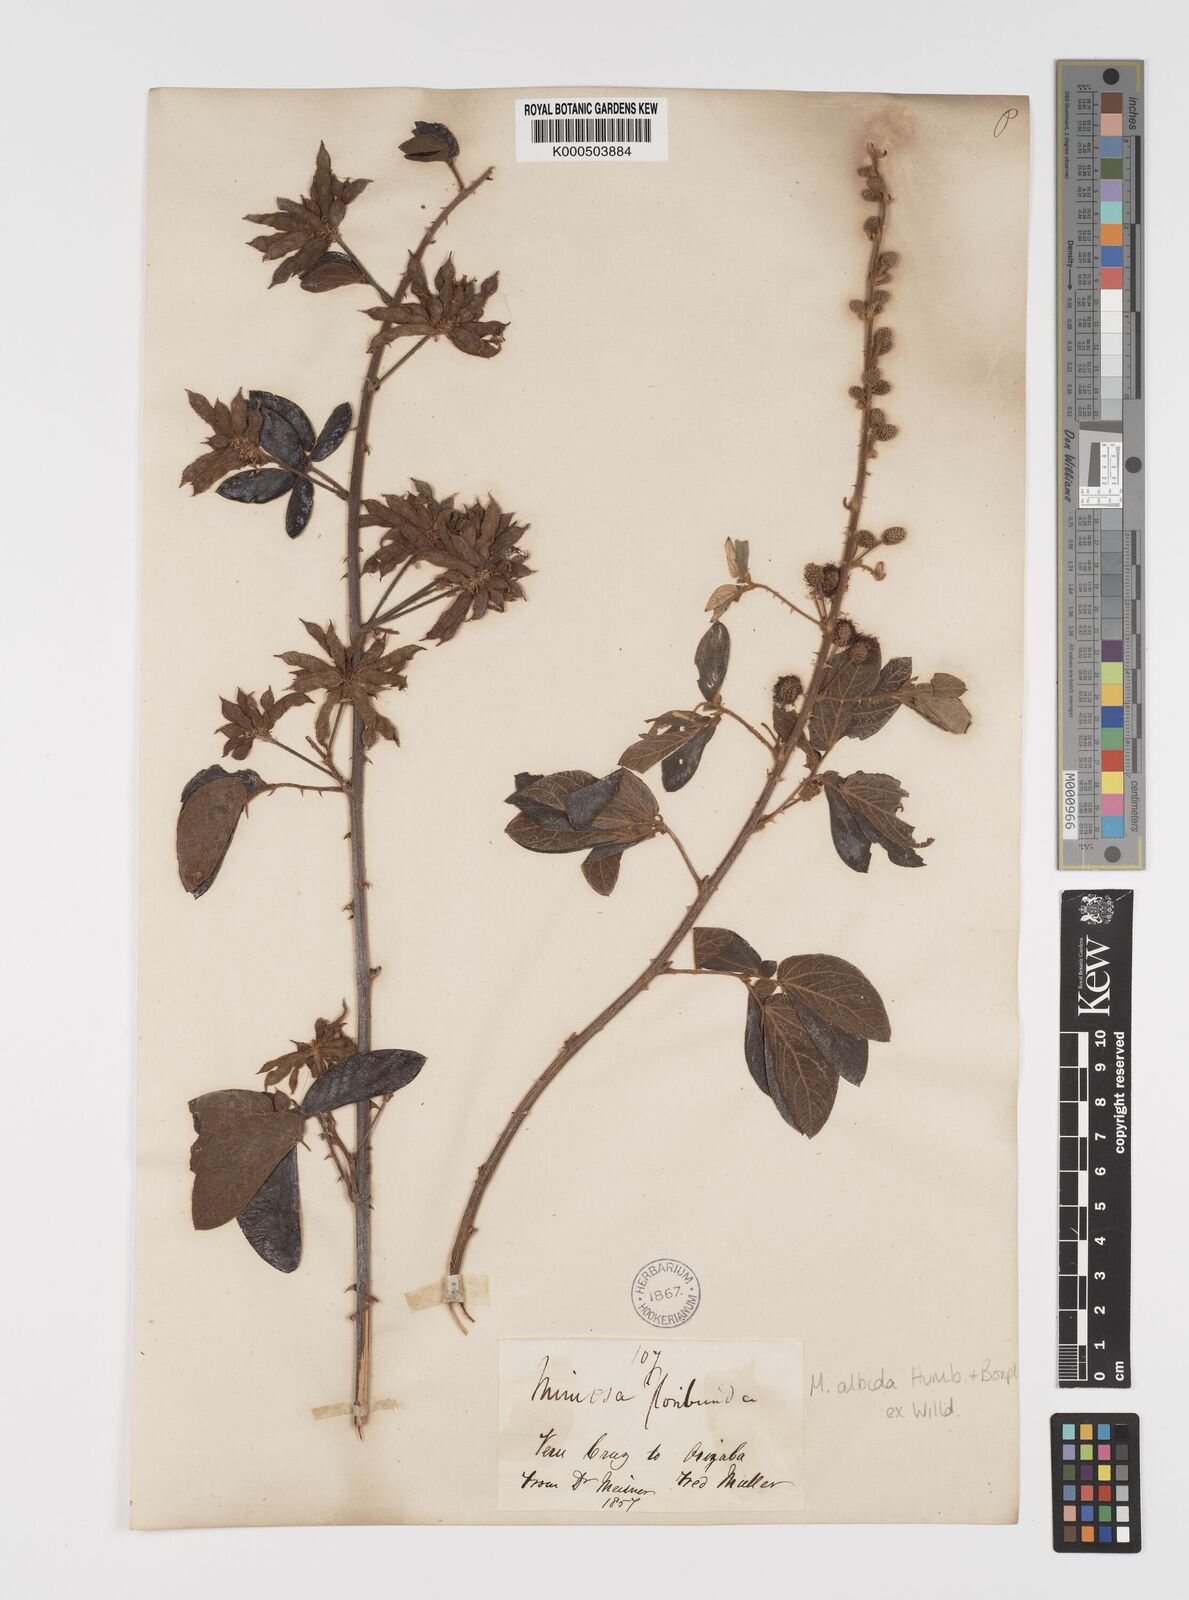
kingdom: Plantae
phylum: Tracheophyta
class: Magnoliopsida
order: Fabales
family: Fabaceae
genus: Mimosa
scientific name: Mimosa albida
